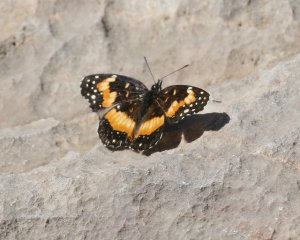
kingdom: Animalia
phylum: Arthropoda
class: Insecta
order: Lepidoptera
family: Nymphalidae
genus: Chlosyne
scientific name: Chlosyne lacinia
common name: Bordered Patch
